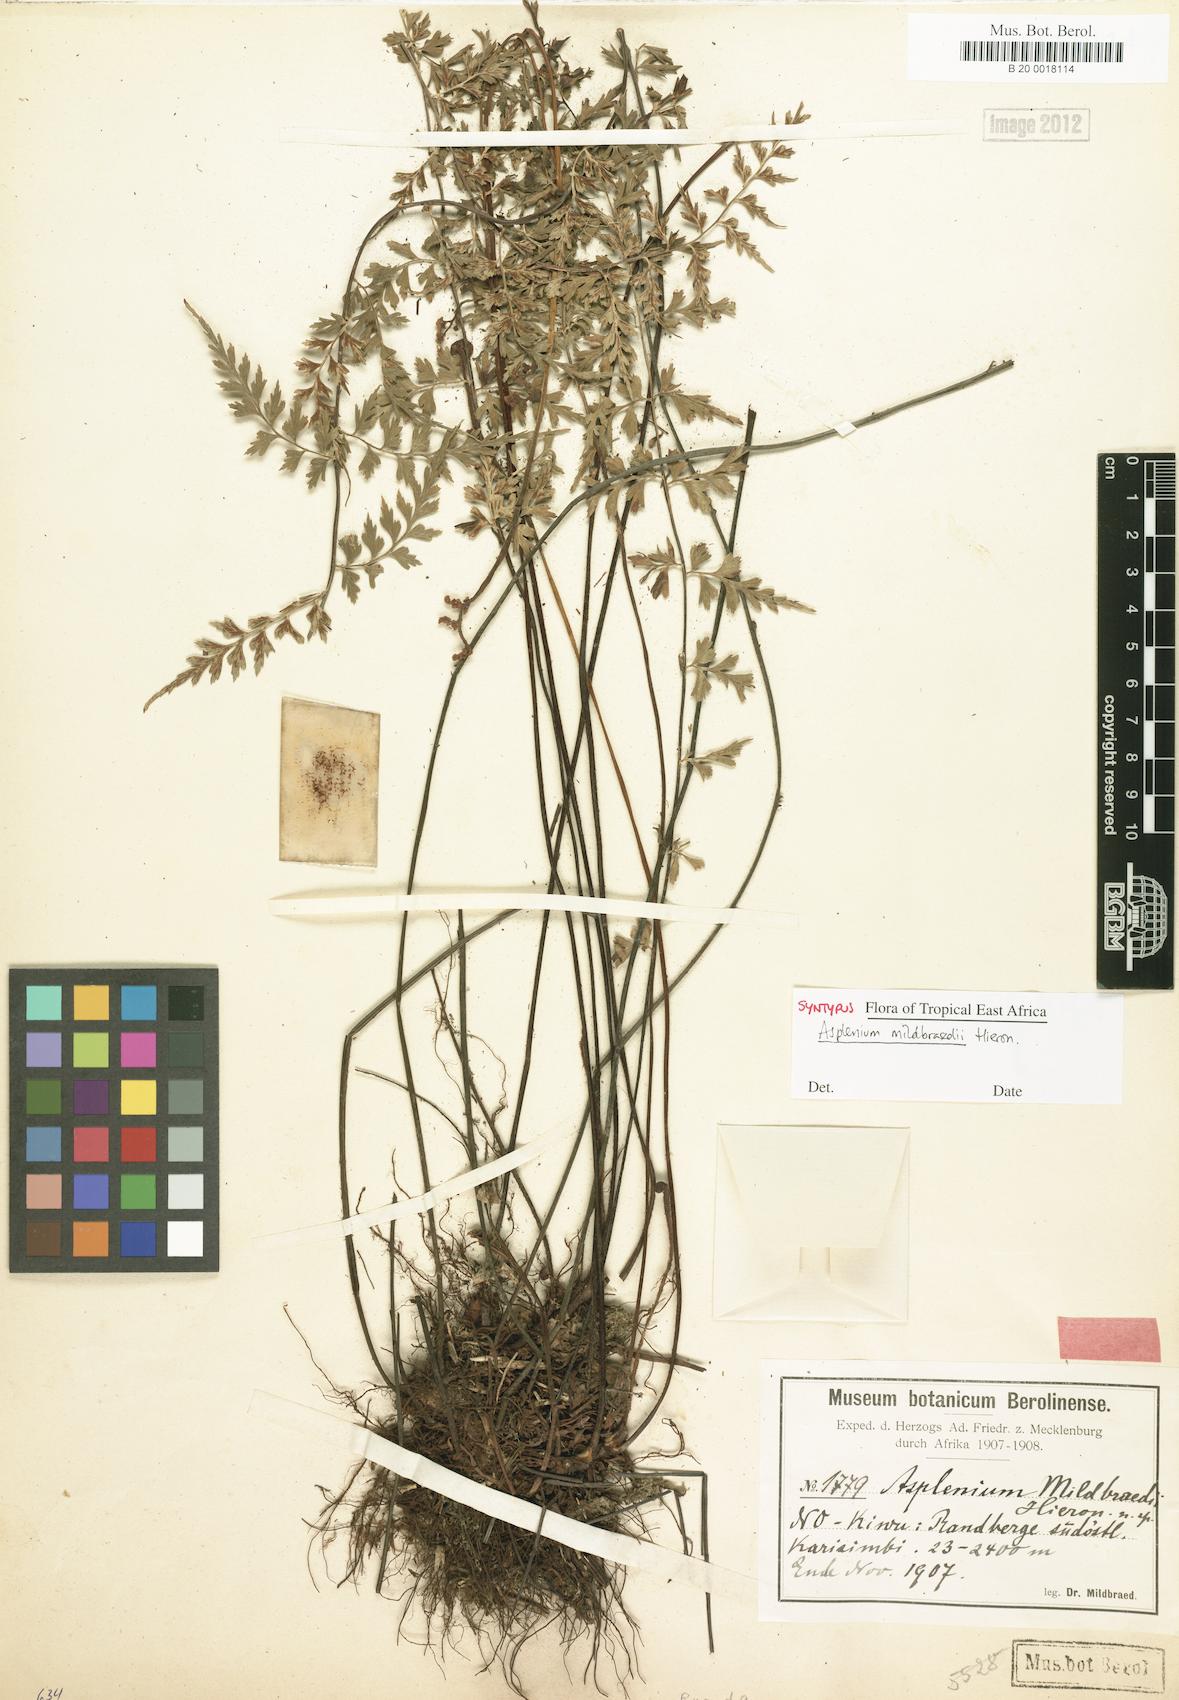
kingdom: Plantae
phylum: Tracheophyta
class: Polypodiopsida
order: Polypodiales
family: Aspleniaceae
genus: Asplenium
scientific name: Asplenium mildbraedii
